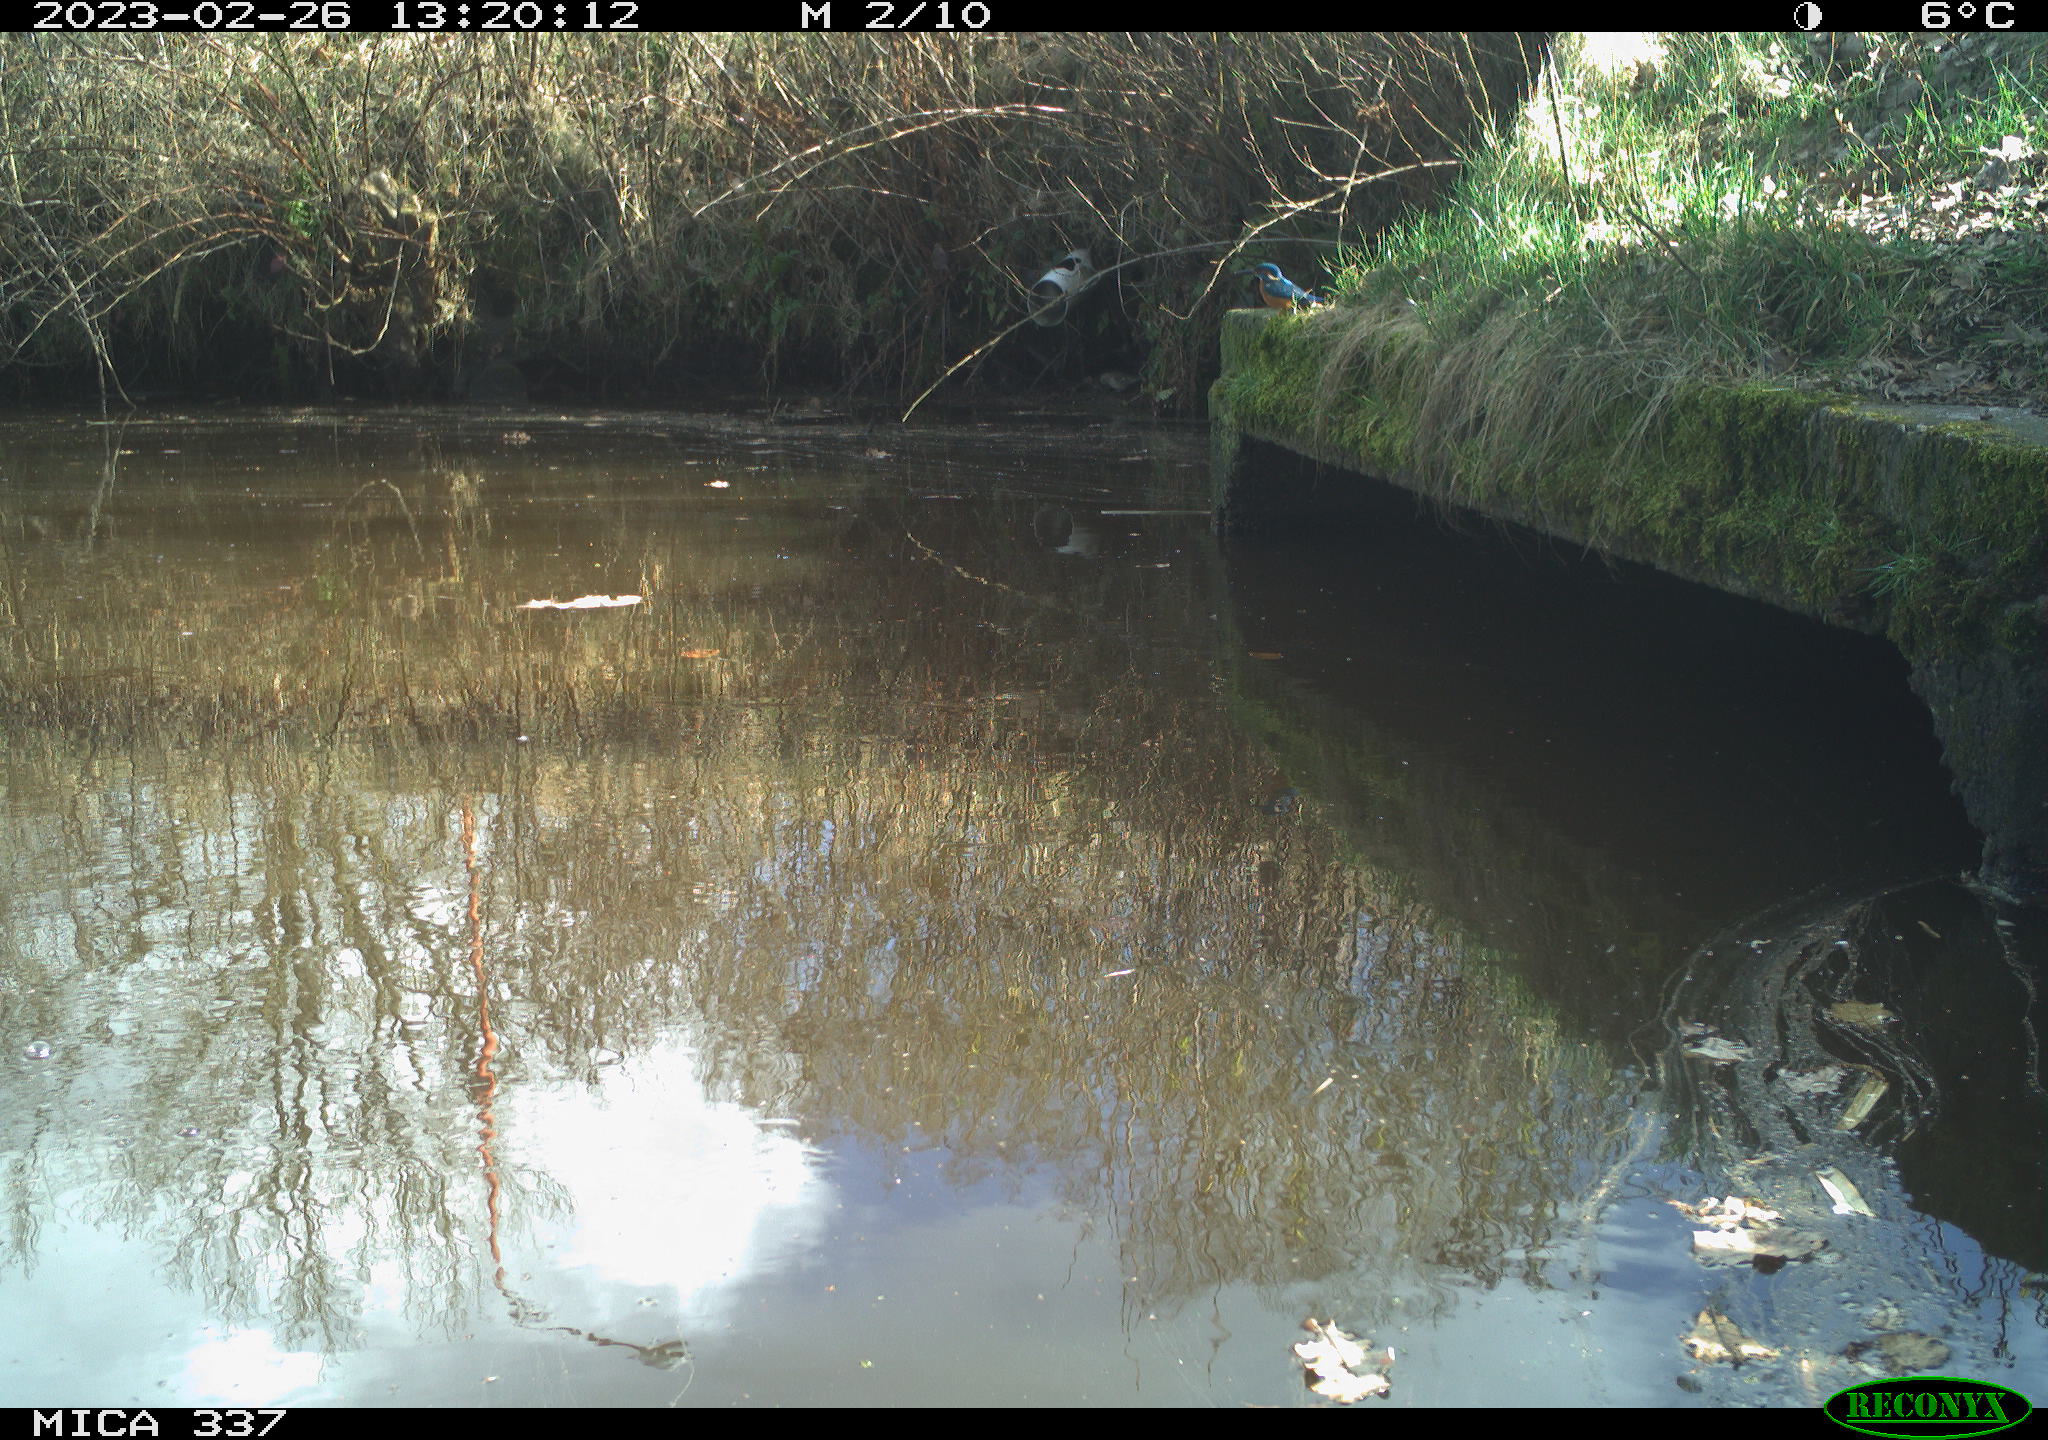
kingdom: Animalia
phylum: Chordata
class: Aves
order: Coraciiformes
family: Alcedinidae
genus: Alcedo
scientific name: Alcedo atthis
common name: Common kingfisher
